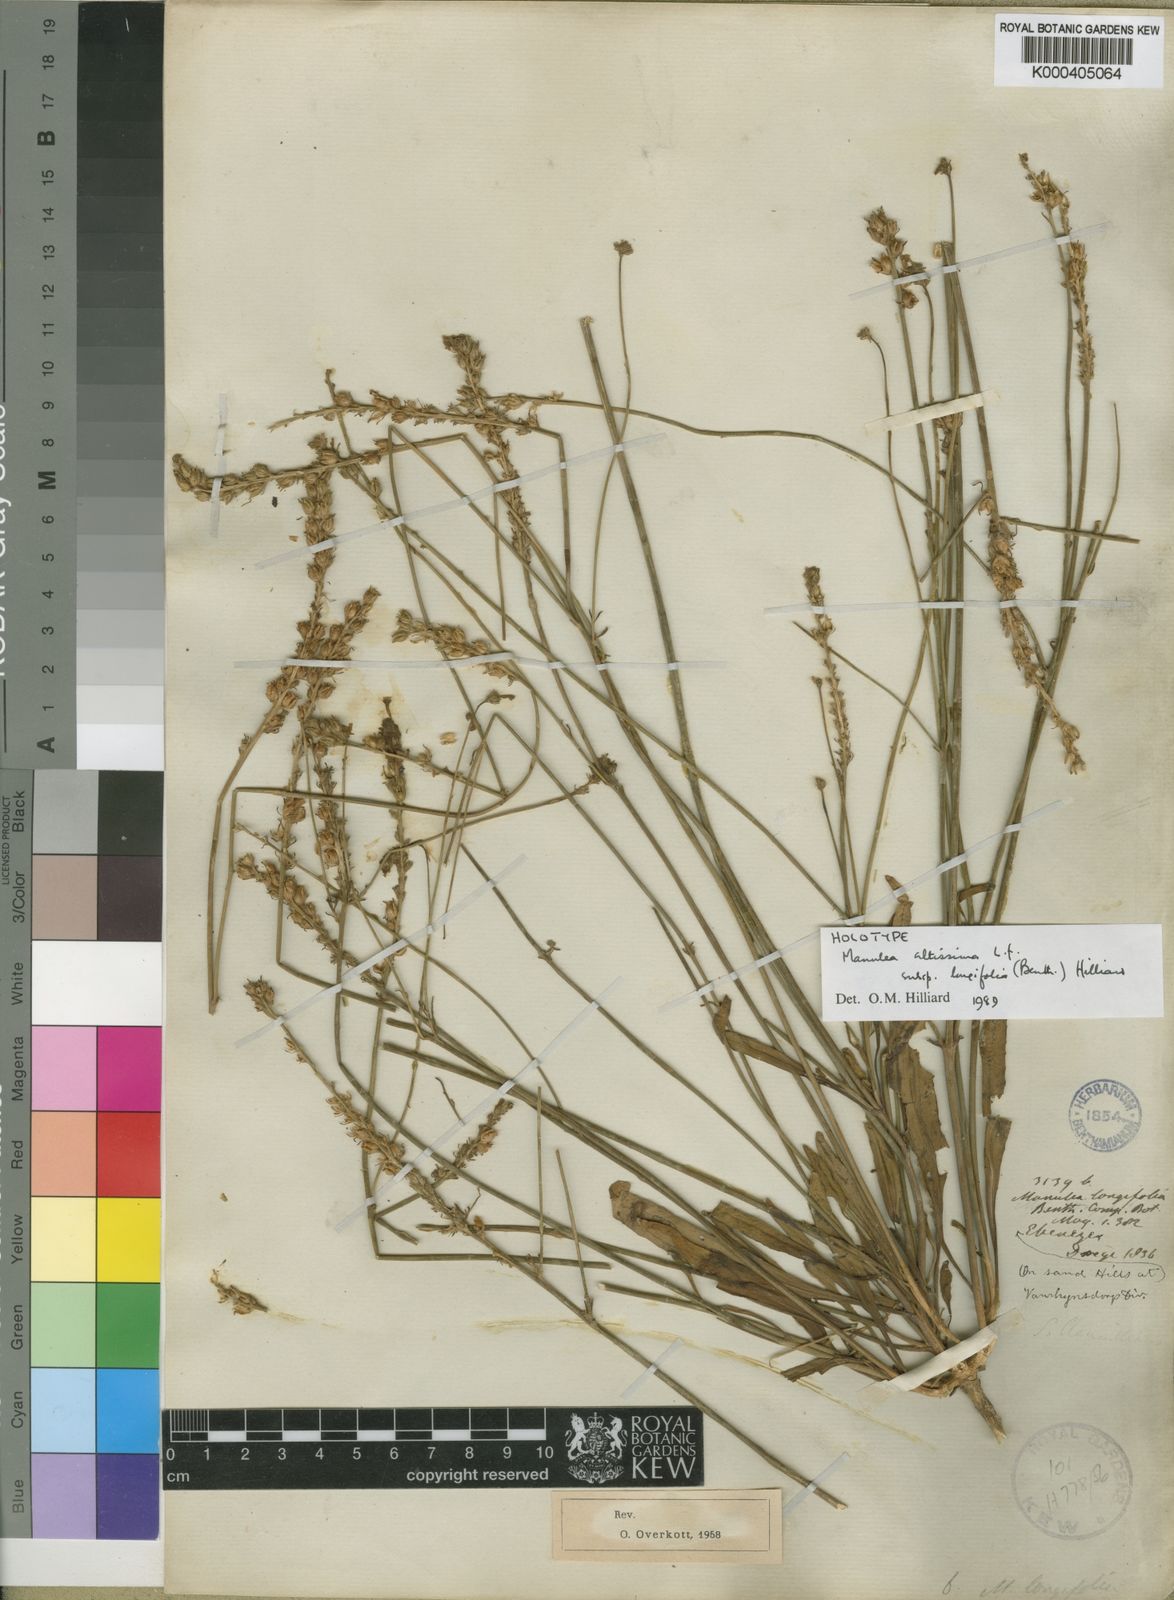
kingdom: Plantae
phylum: Tracheophyta
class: Magnoliopsida
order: Lamiales
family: Scrophulariaceae
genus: Manulea
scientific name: Manulea altissima
